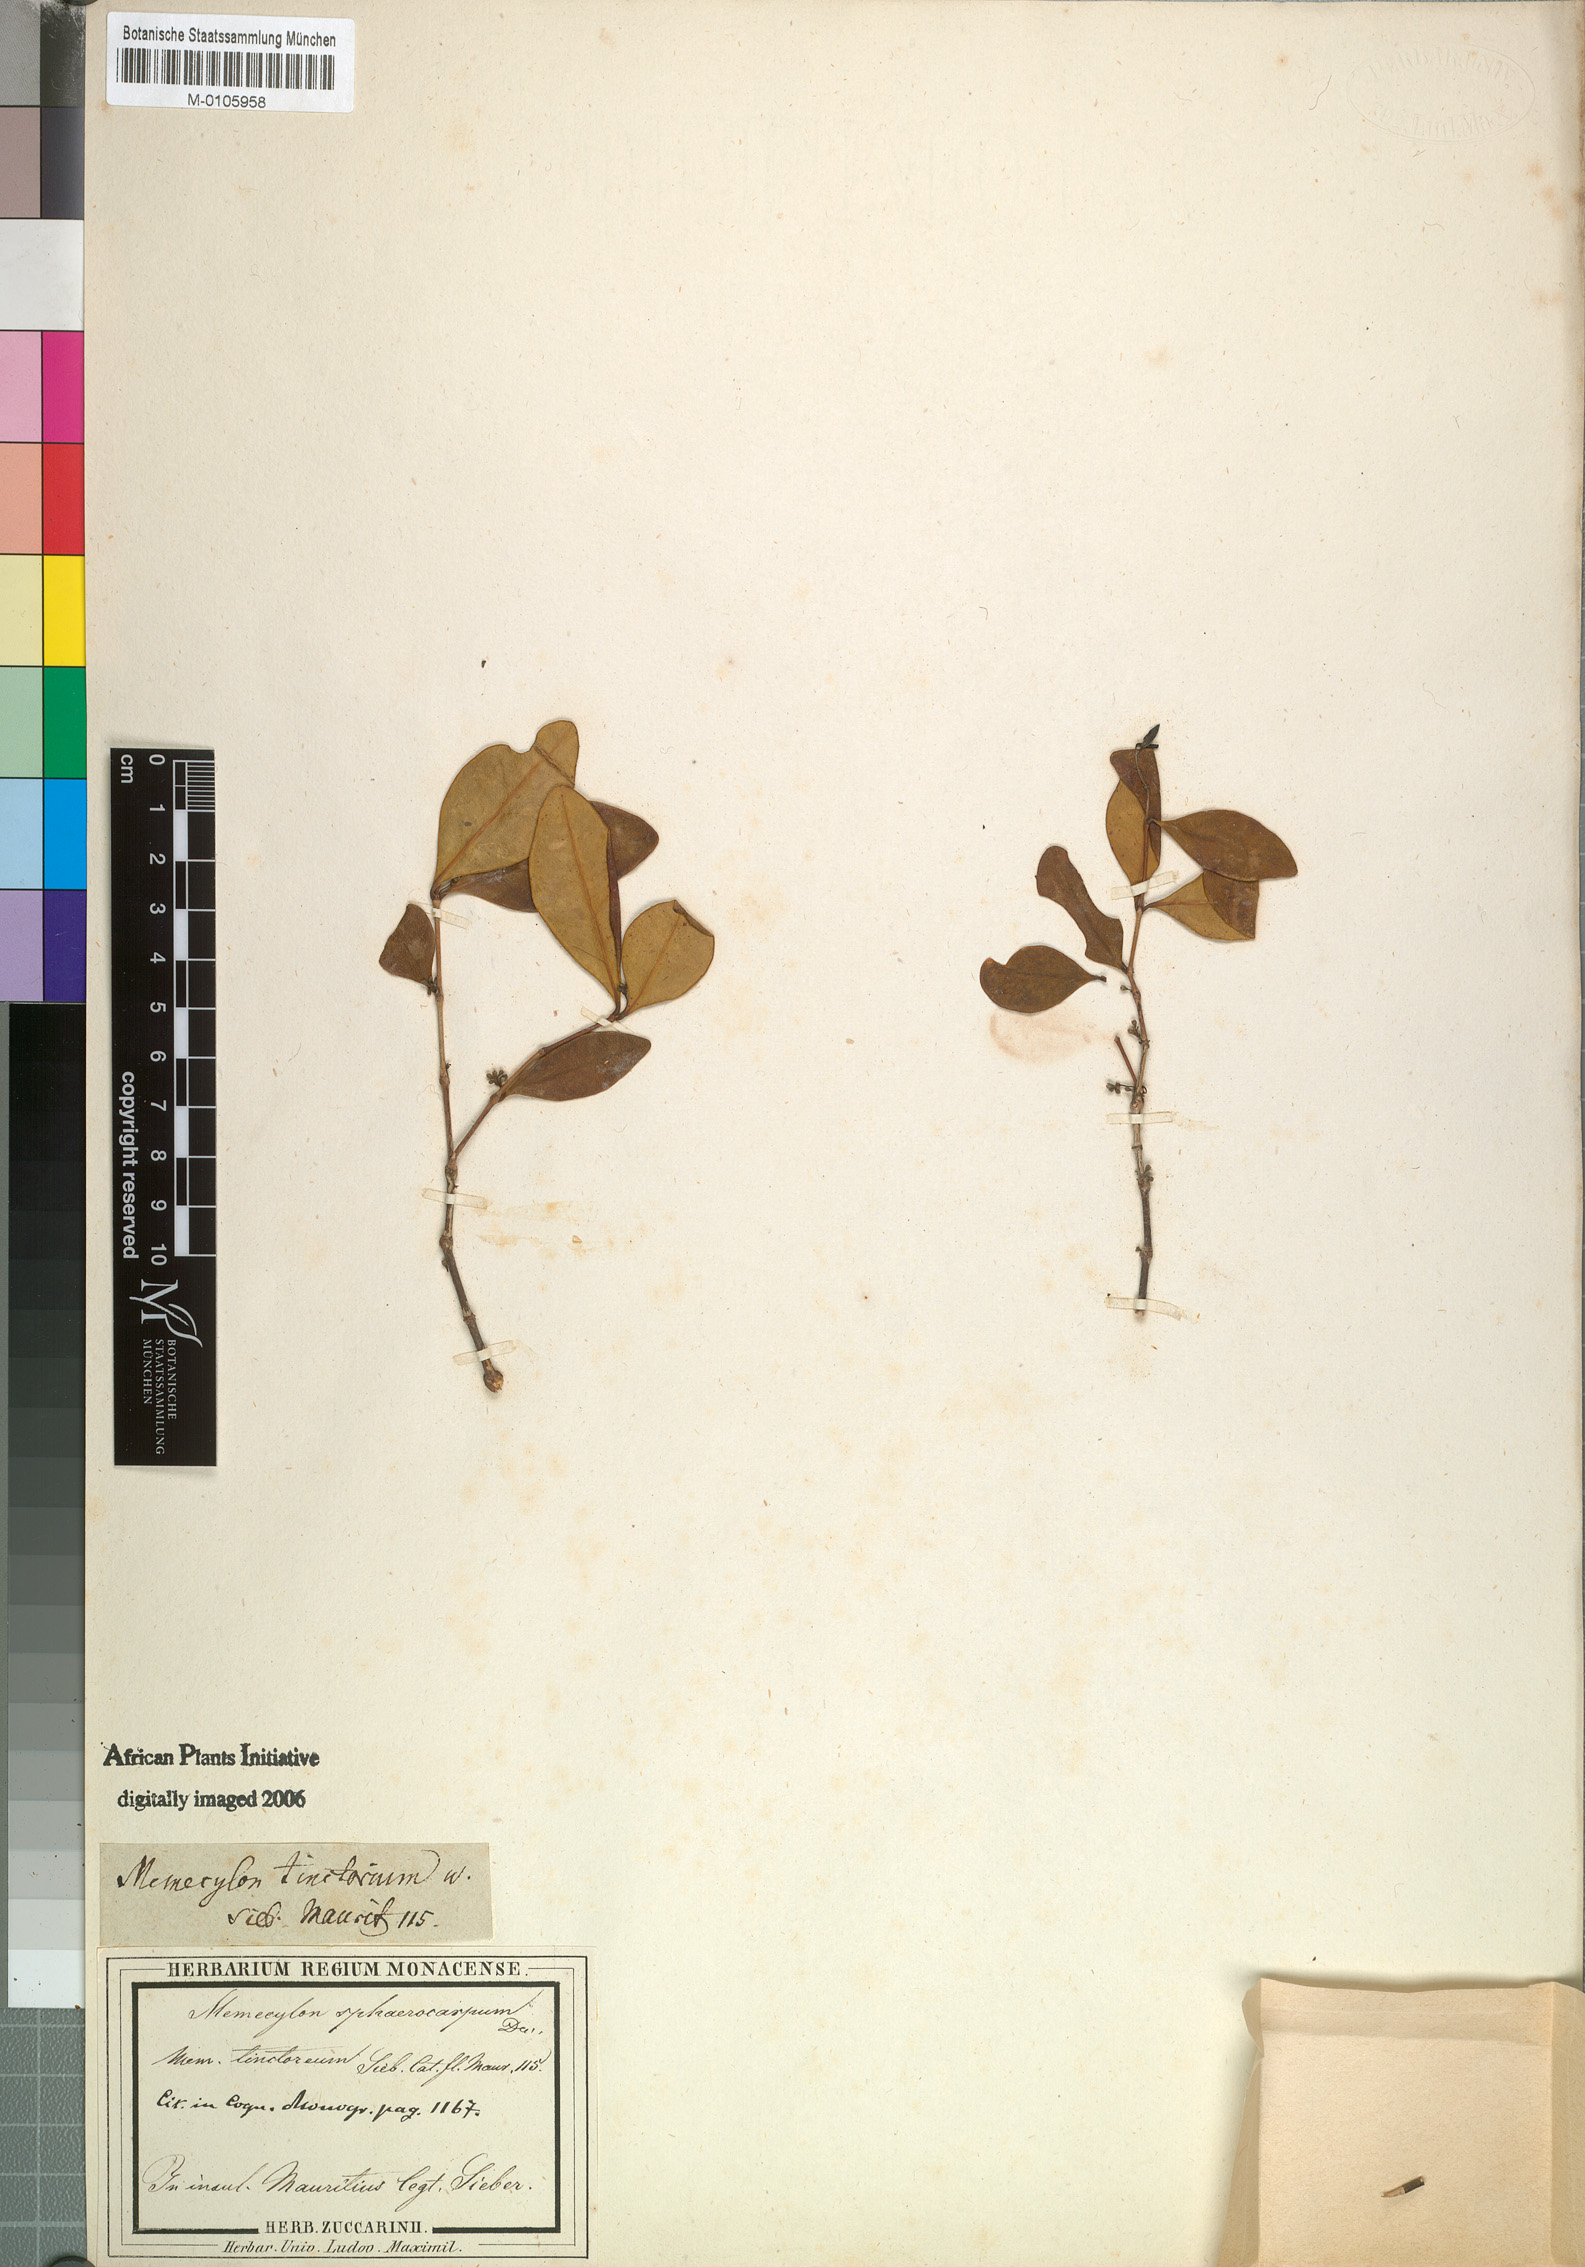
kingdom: Plantae
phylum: Tracheophyta
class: Magnoliopsida
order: Myrtales
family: Melastomataceae
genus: Memecylon
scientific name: Memecylon ovatifolium
